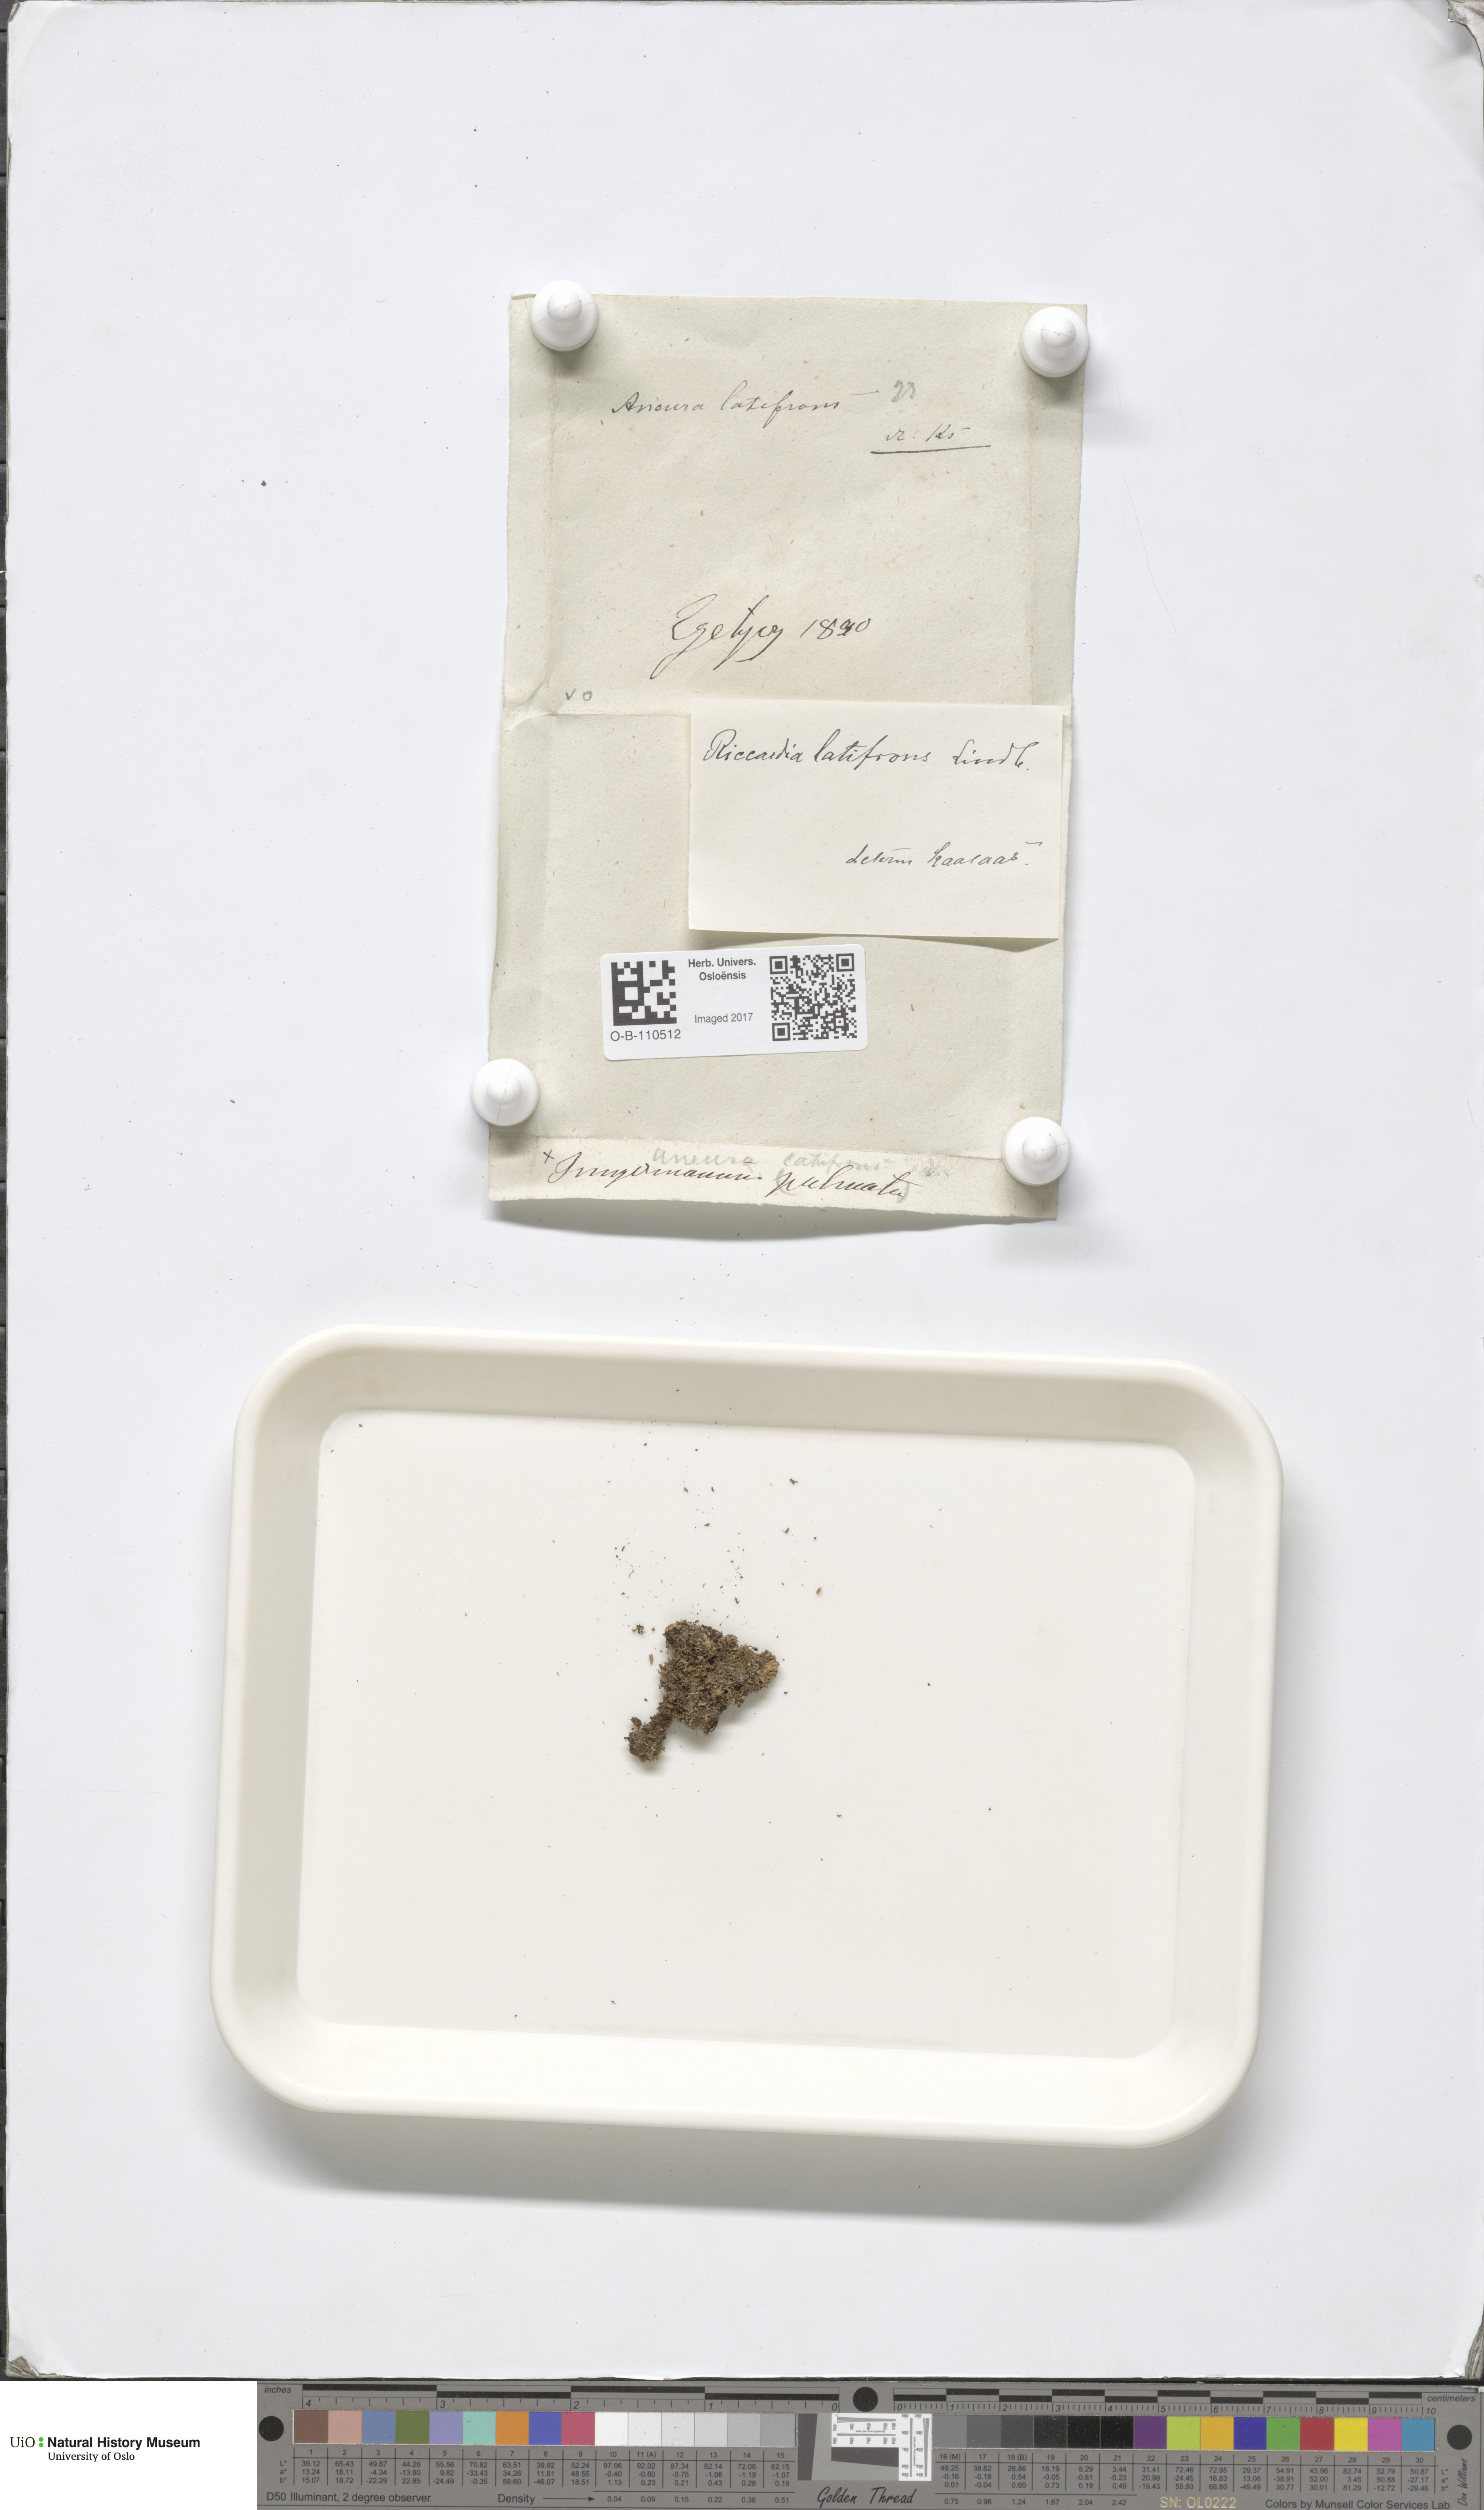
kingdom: Plantae
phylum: Marchantiophyta
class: Jungermanniopsida
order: Metzgeriales
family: Aneuraceae
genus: Riccardia
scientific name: Riccardia latifrons
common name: Bog germanderwort
